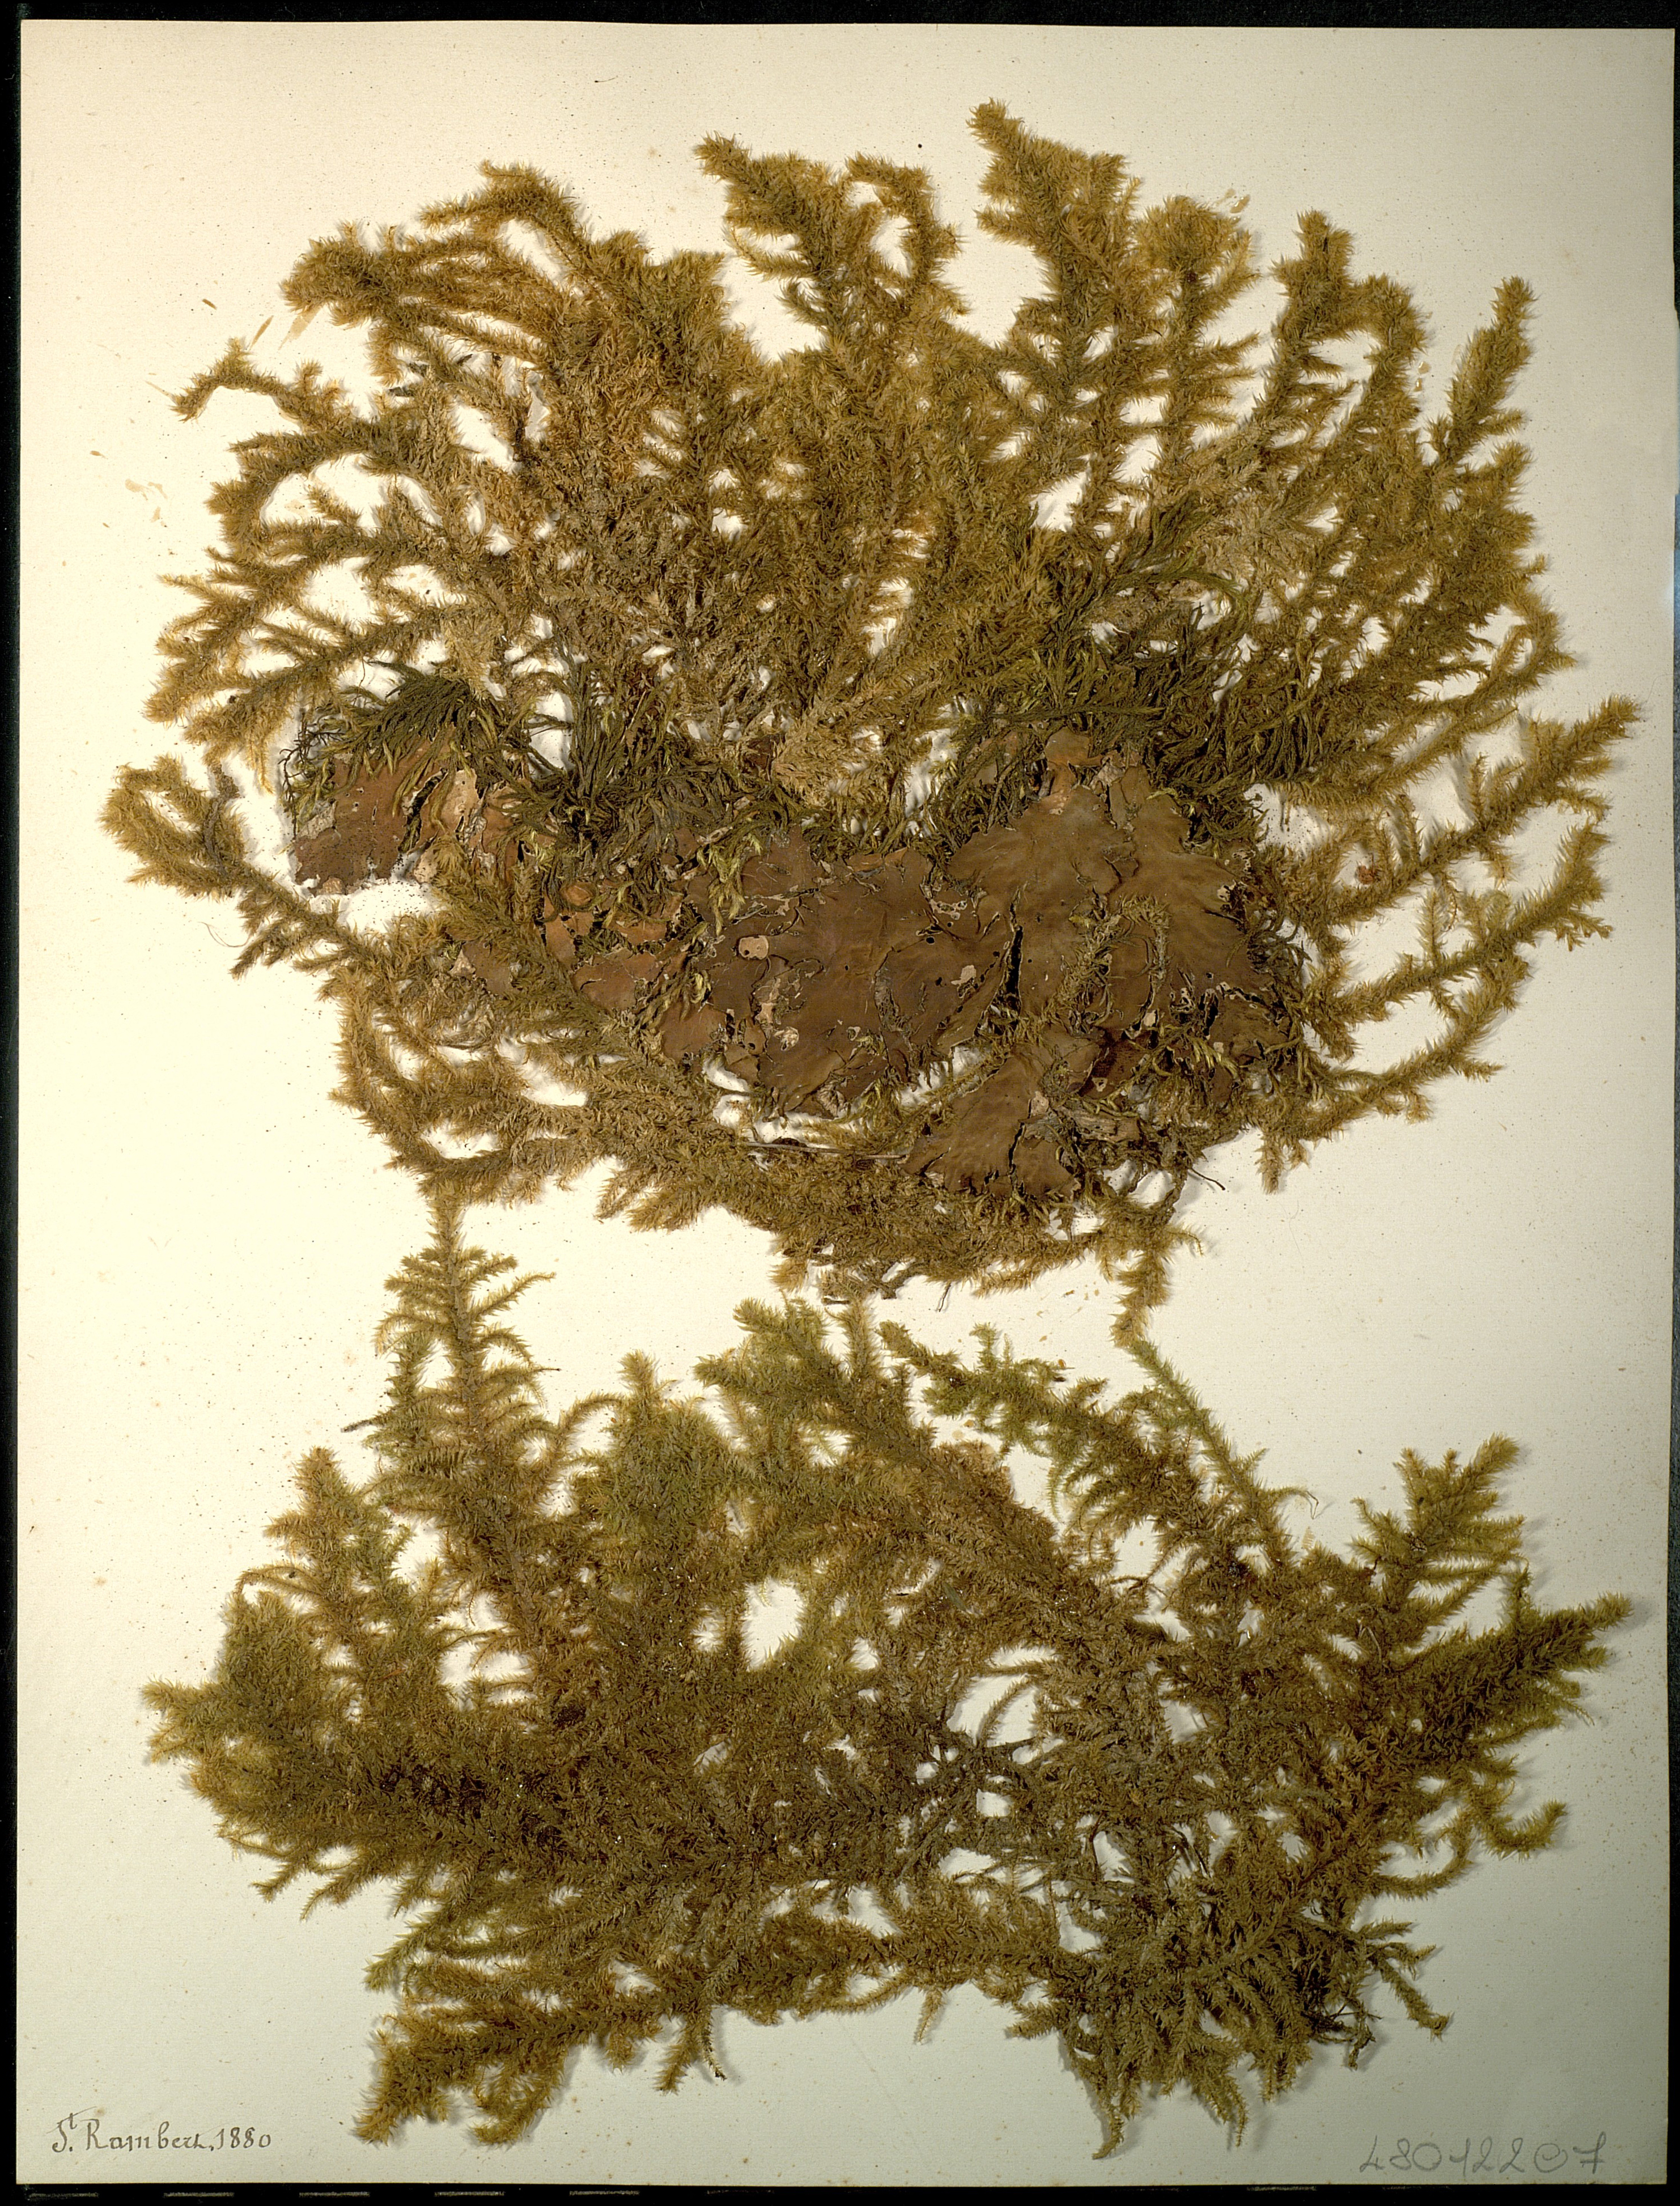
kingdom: Fungi
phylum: Ascomycota
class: Lecanoromycetes
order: Peltigerales
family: Peltigeraceae
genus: Peltigera
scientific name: Peltigera
